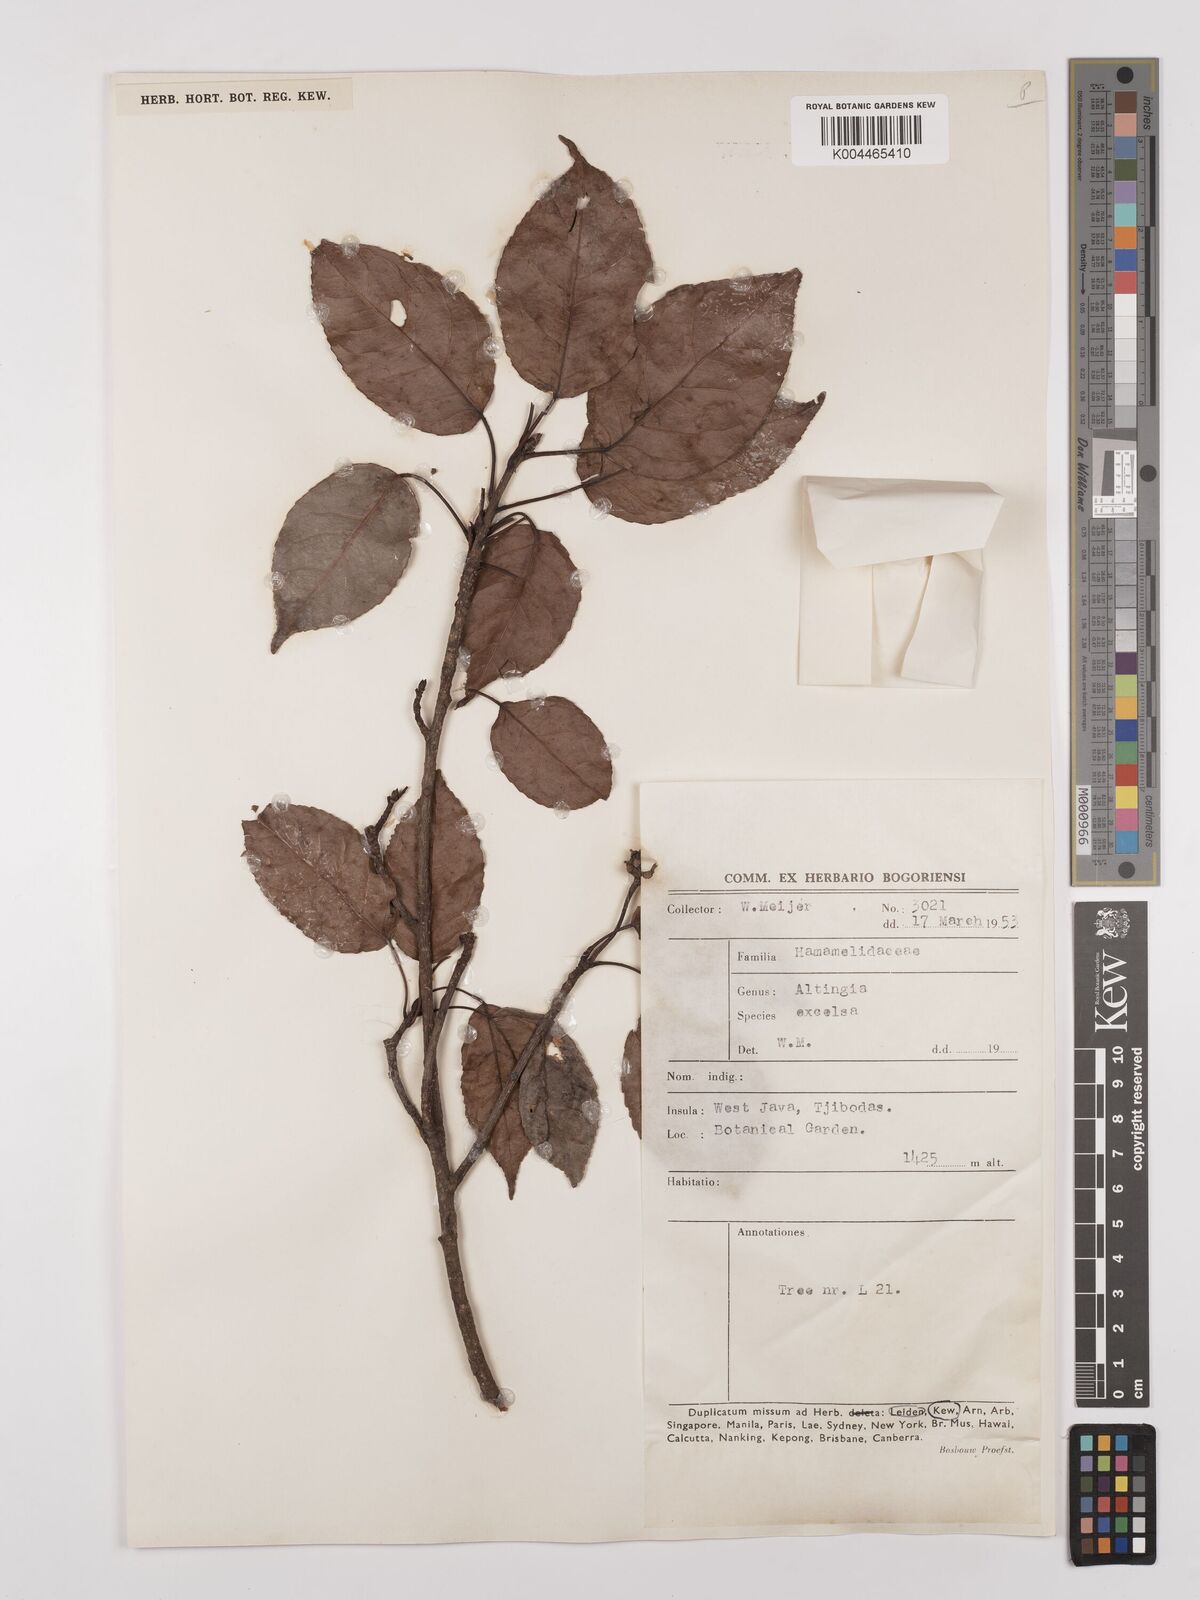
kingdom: Plantae
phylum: Tracheophyta
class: Magnoliopsida
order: Saxifragales
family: Altingiaceae
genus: Liquidambar
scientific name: Liquidambar excelsa
